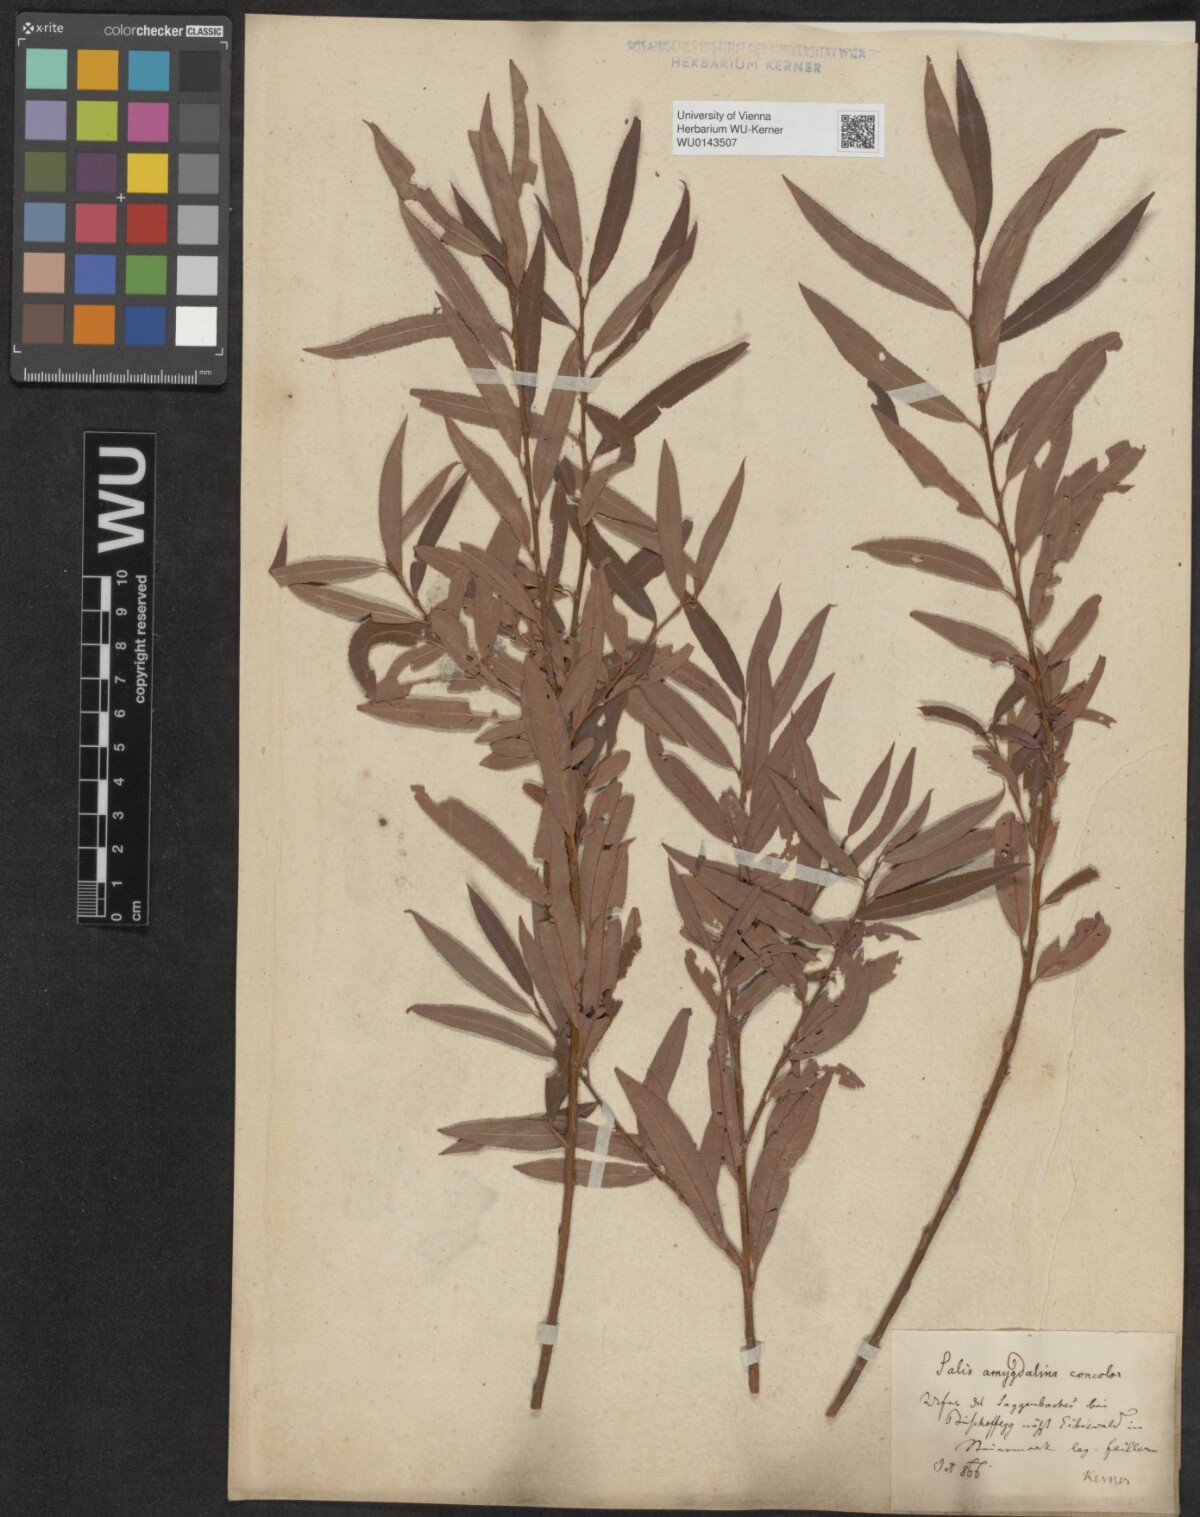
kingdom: Plantae
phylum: Tracheophyta
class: Magnoliopsida
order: Malpighiales
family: Salicaceae
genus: Salix
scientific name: Salix triandra
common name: Almond willow
